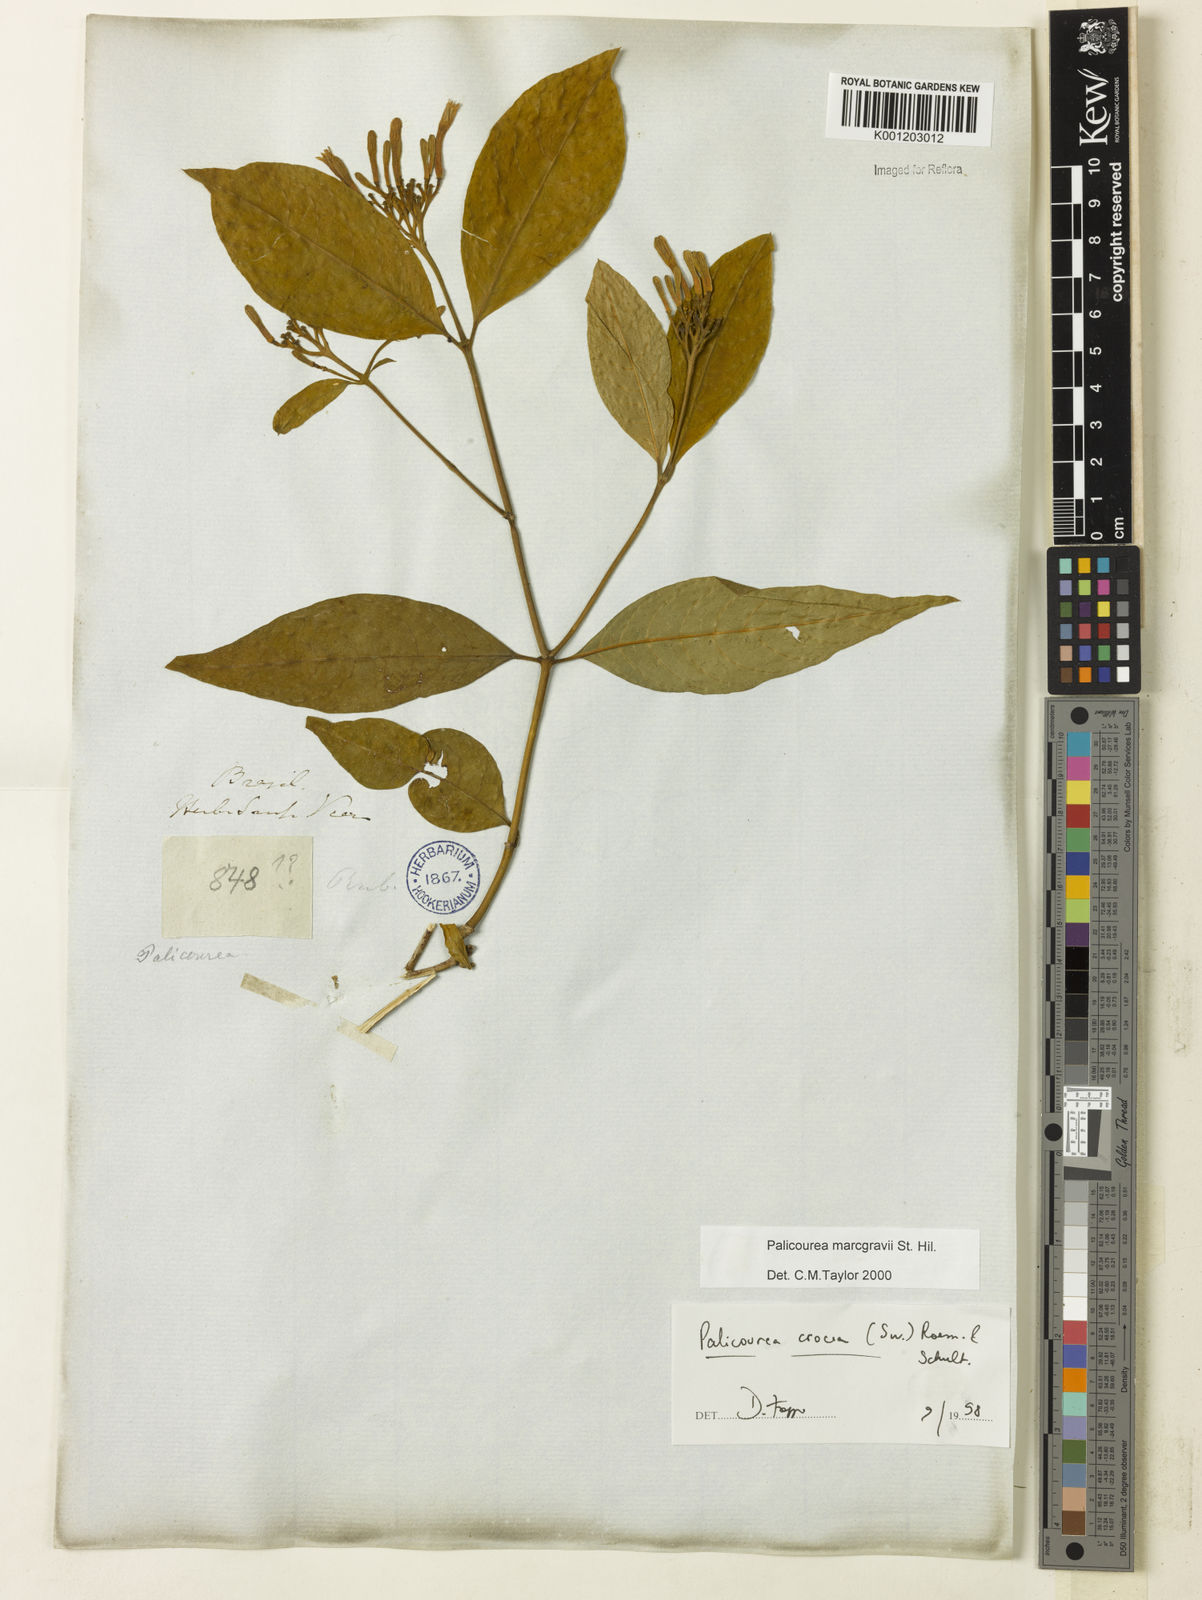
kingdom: Plantae
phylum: Tracheophyta
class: Magnoliopsida
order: Gentianales
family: Rubiaceae
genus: Palicourea
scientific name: Palicourea marcgravii
